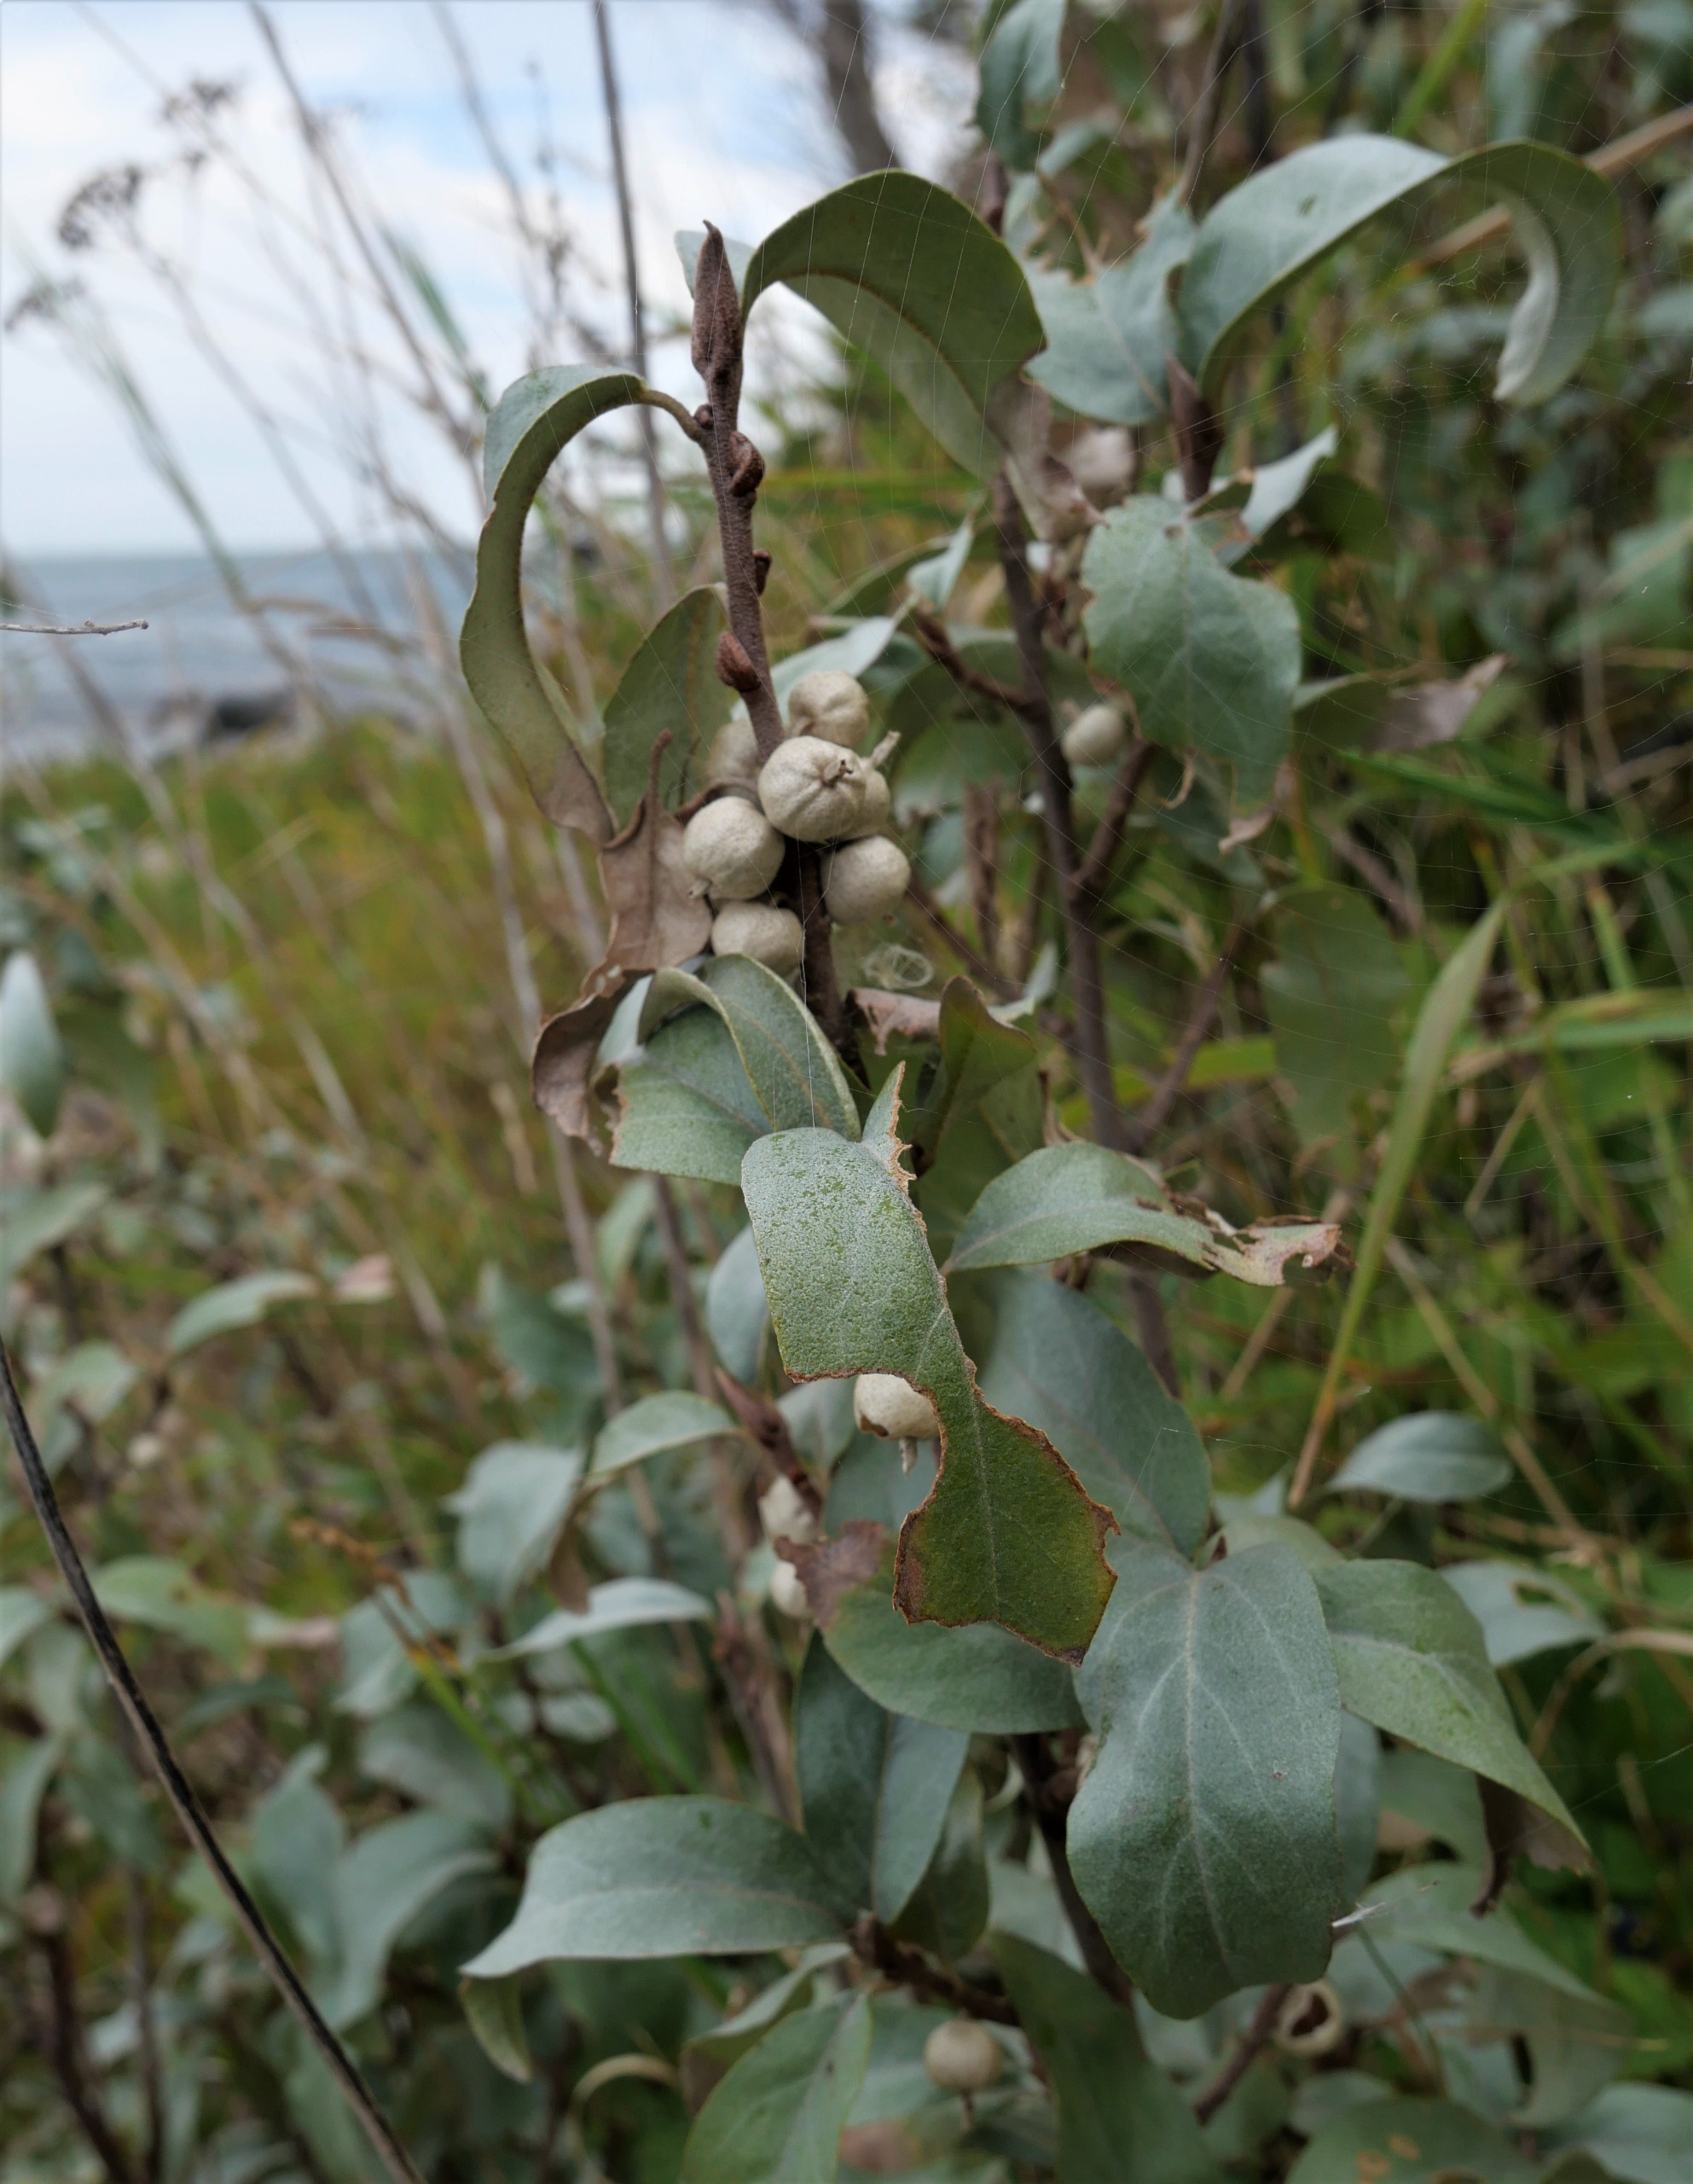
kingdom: Plantae
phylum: Tracheophyta
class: Magnoliopsida
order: Rosales
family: Elaeagnaceae
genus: Elaeagnus
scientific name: Elaeagnus commutata
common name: Sølvblad
